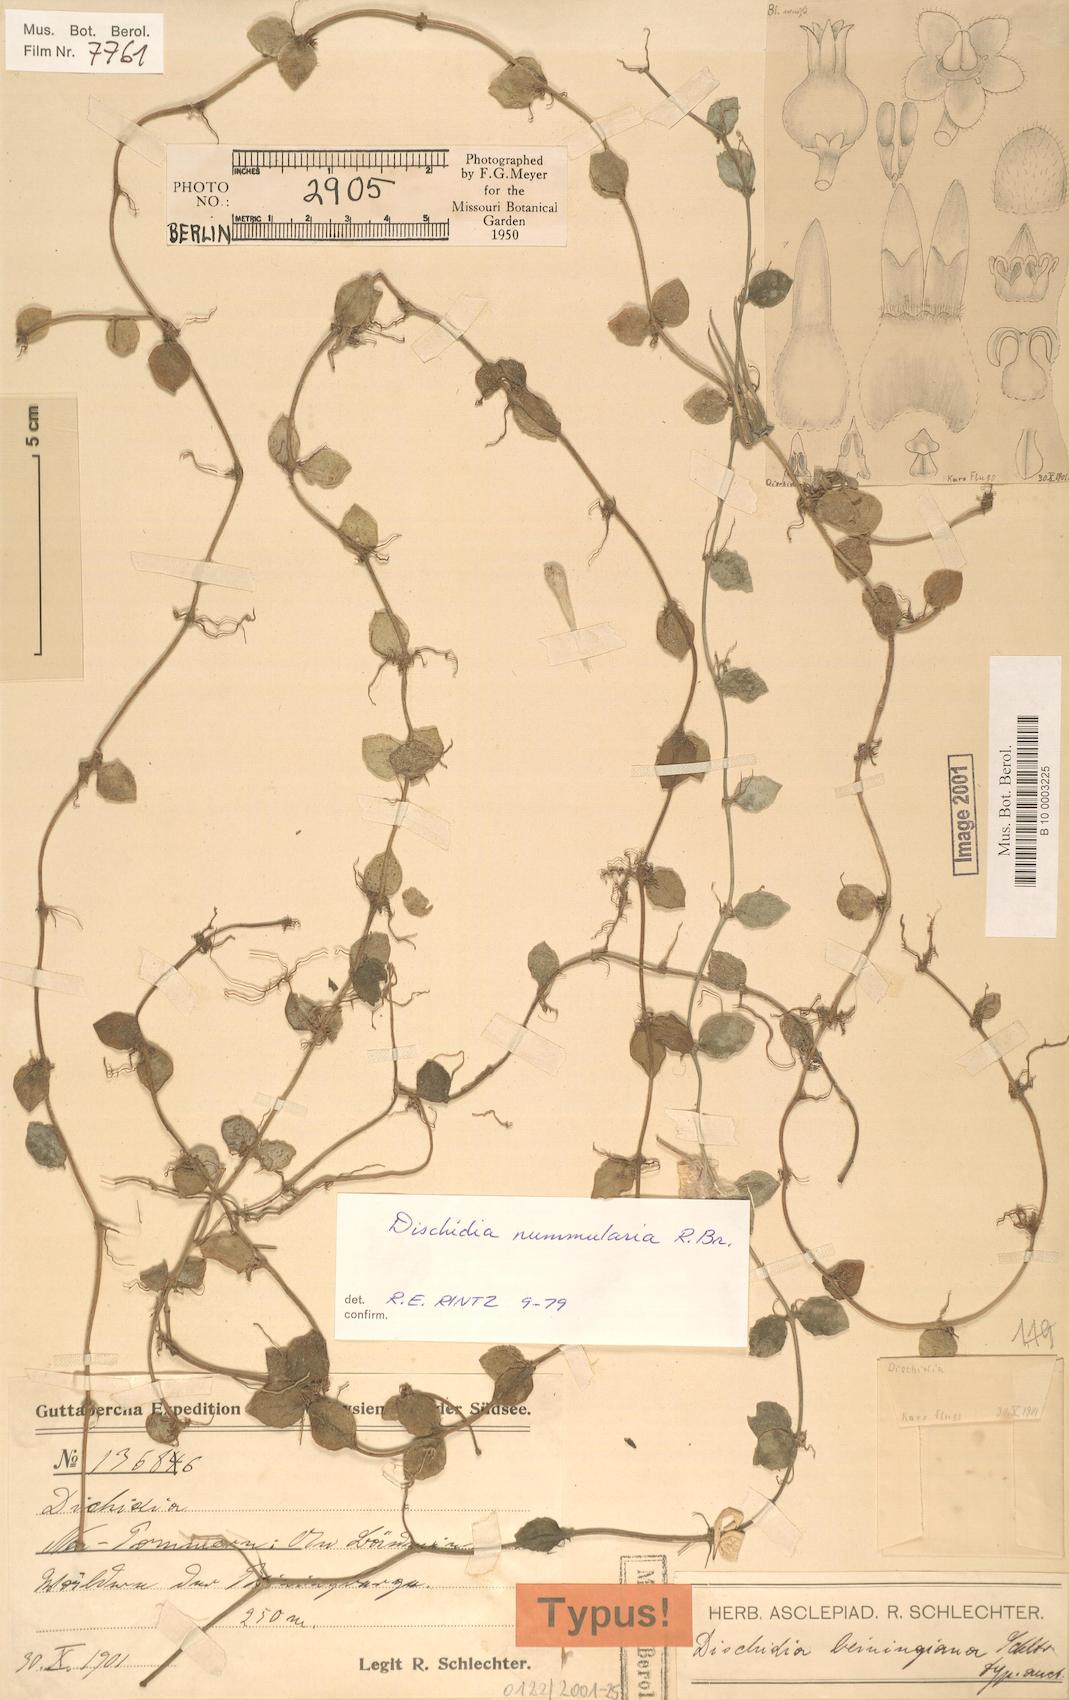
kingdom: Plantae
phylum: Tracheophyta
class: Magnoliopsida
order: Gentianales
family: Apocynaceae
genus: Dischidia
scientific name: Dischidia nummularia
